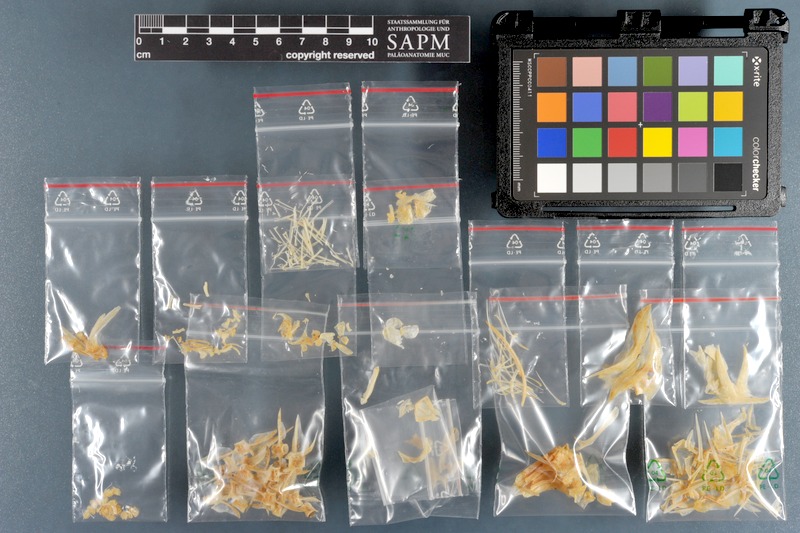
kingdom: Animalia
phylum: Chordata
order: Perciformes
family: Siganidae
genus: Siganus
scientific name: Siganus canaliculatus
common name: White-spotted spinefoot
